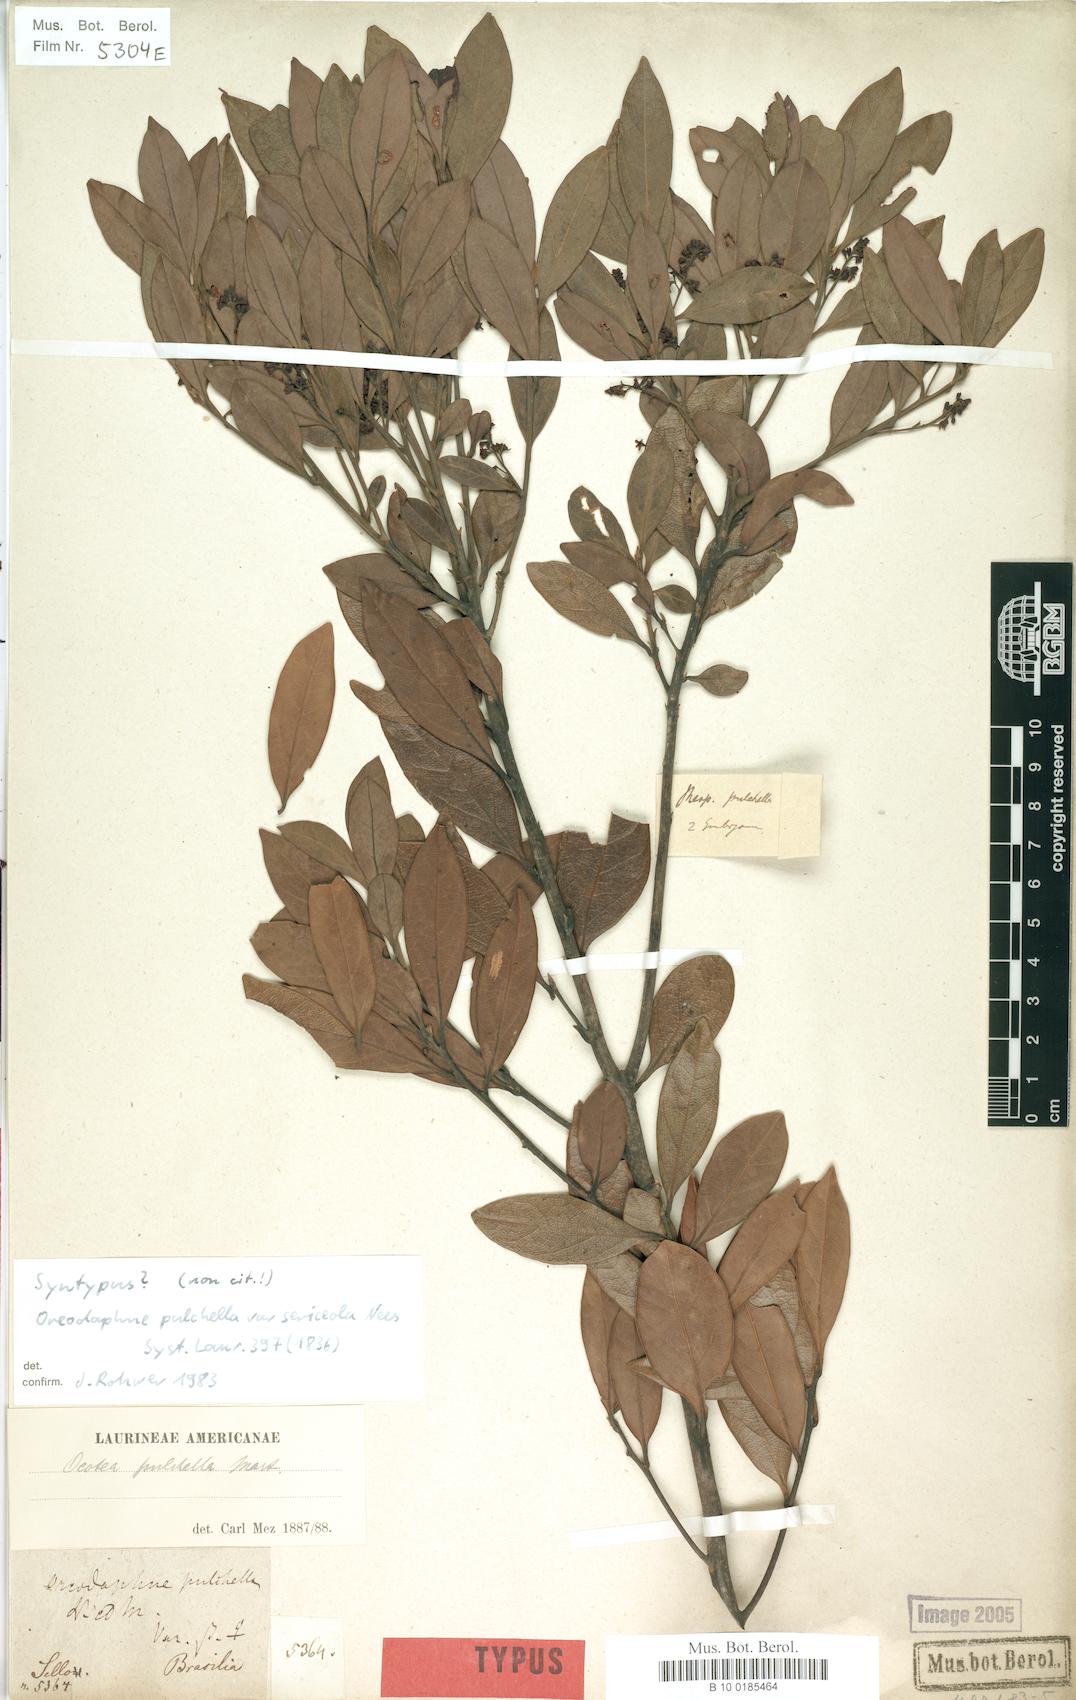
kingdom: Plantae
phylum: Tracheophyta
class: Magnoliopsida
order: Laurales
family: Lauraceae
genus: Mespilodaphne
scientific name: Mespilodaphne pulchella
